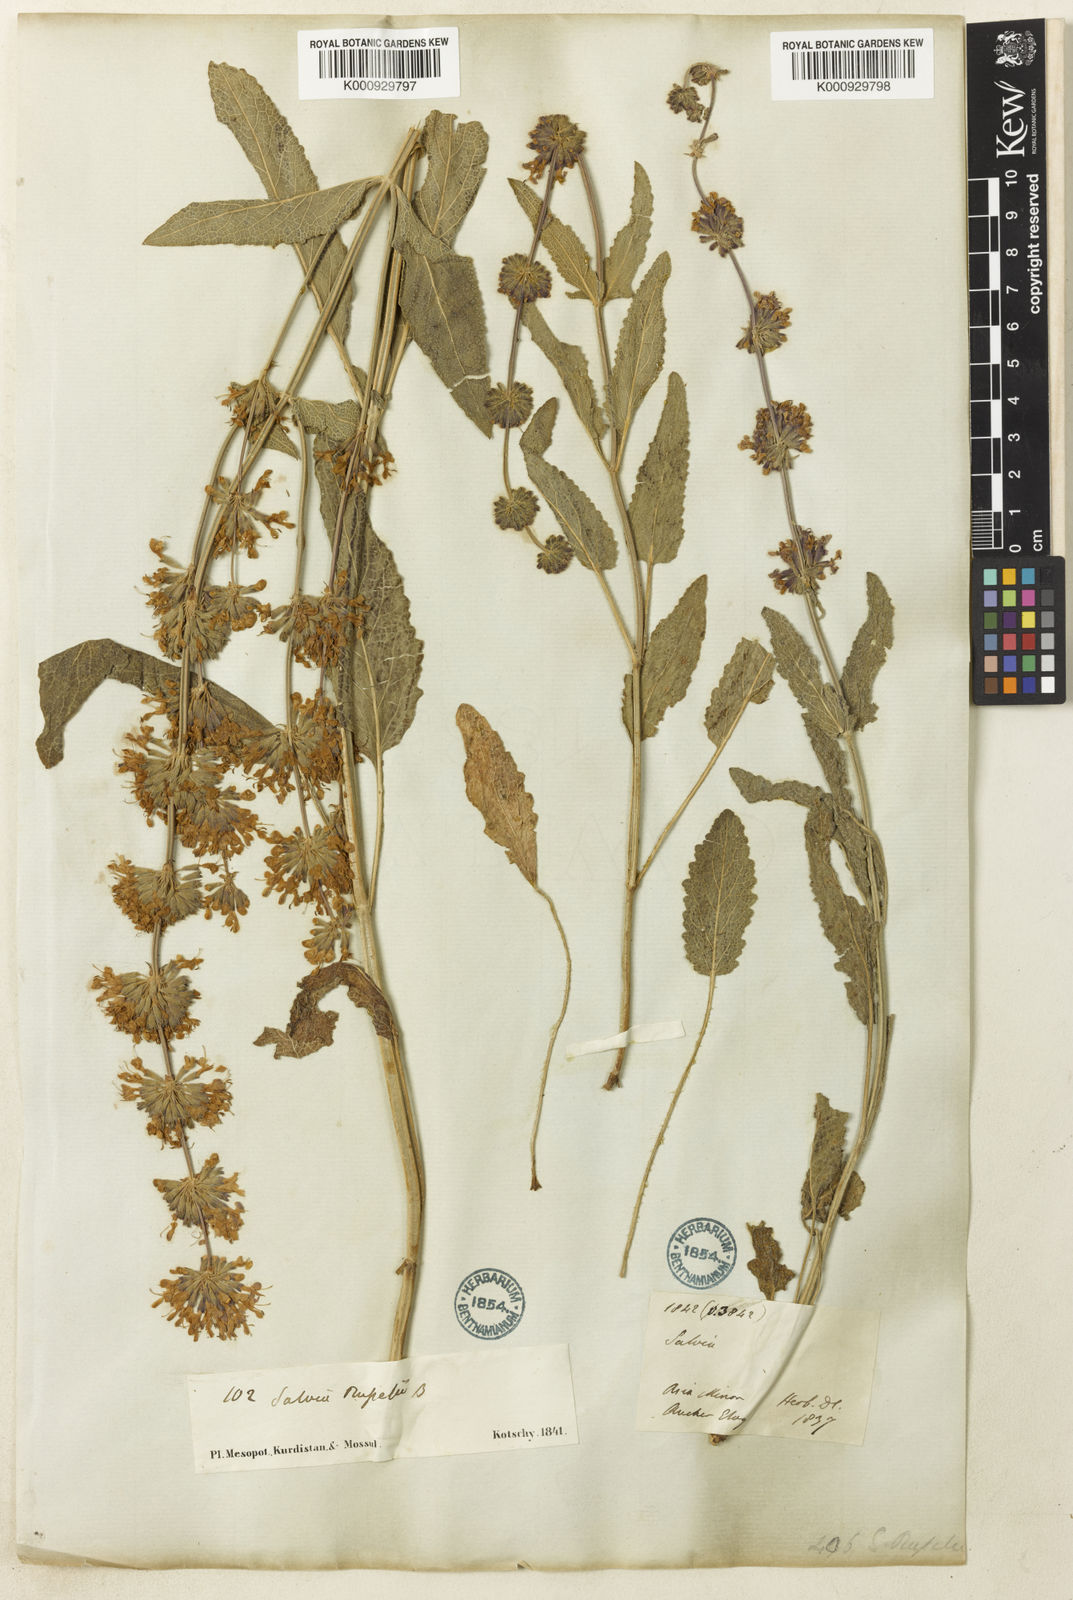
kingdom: Plantae
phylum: Tracheophyta
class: Magnoliopsida
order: Lamiales
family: Lamiaceae
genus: Salvia
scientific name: Salvia russellii
